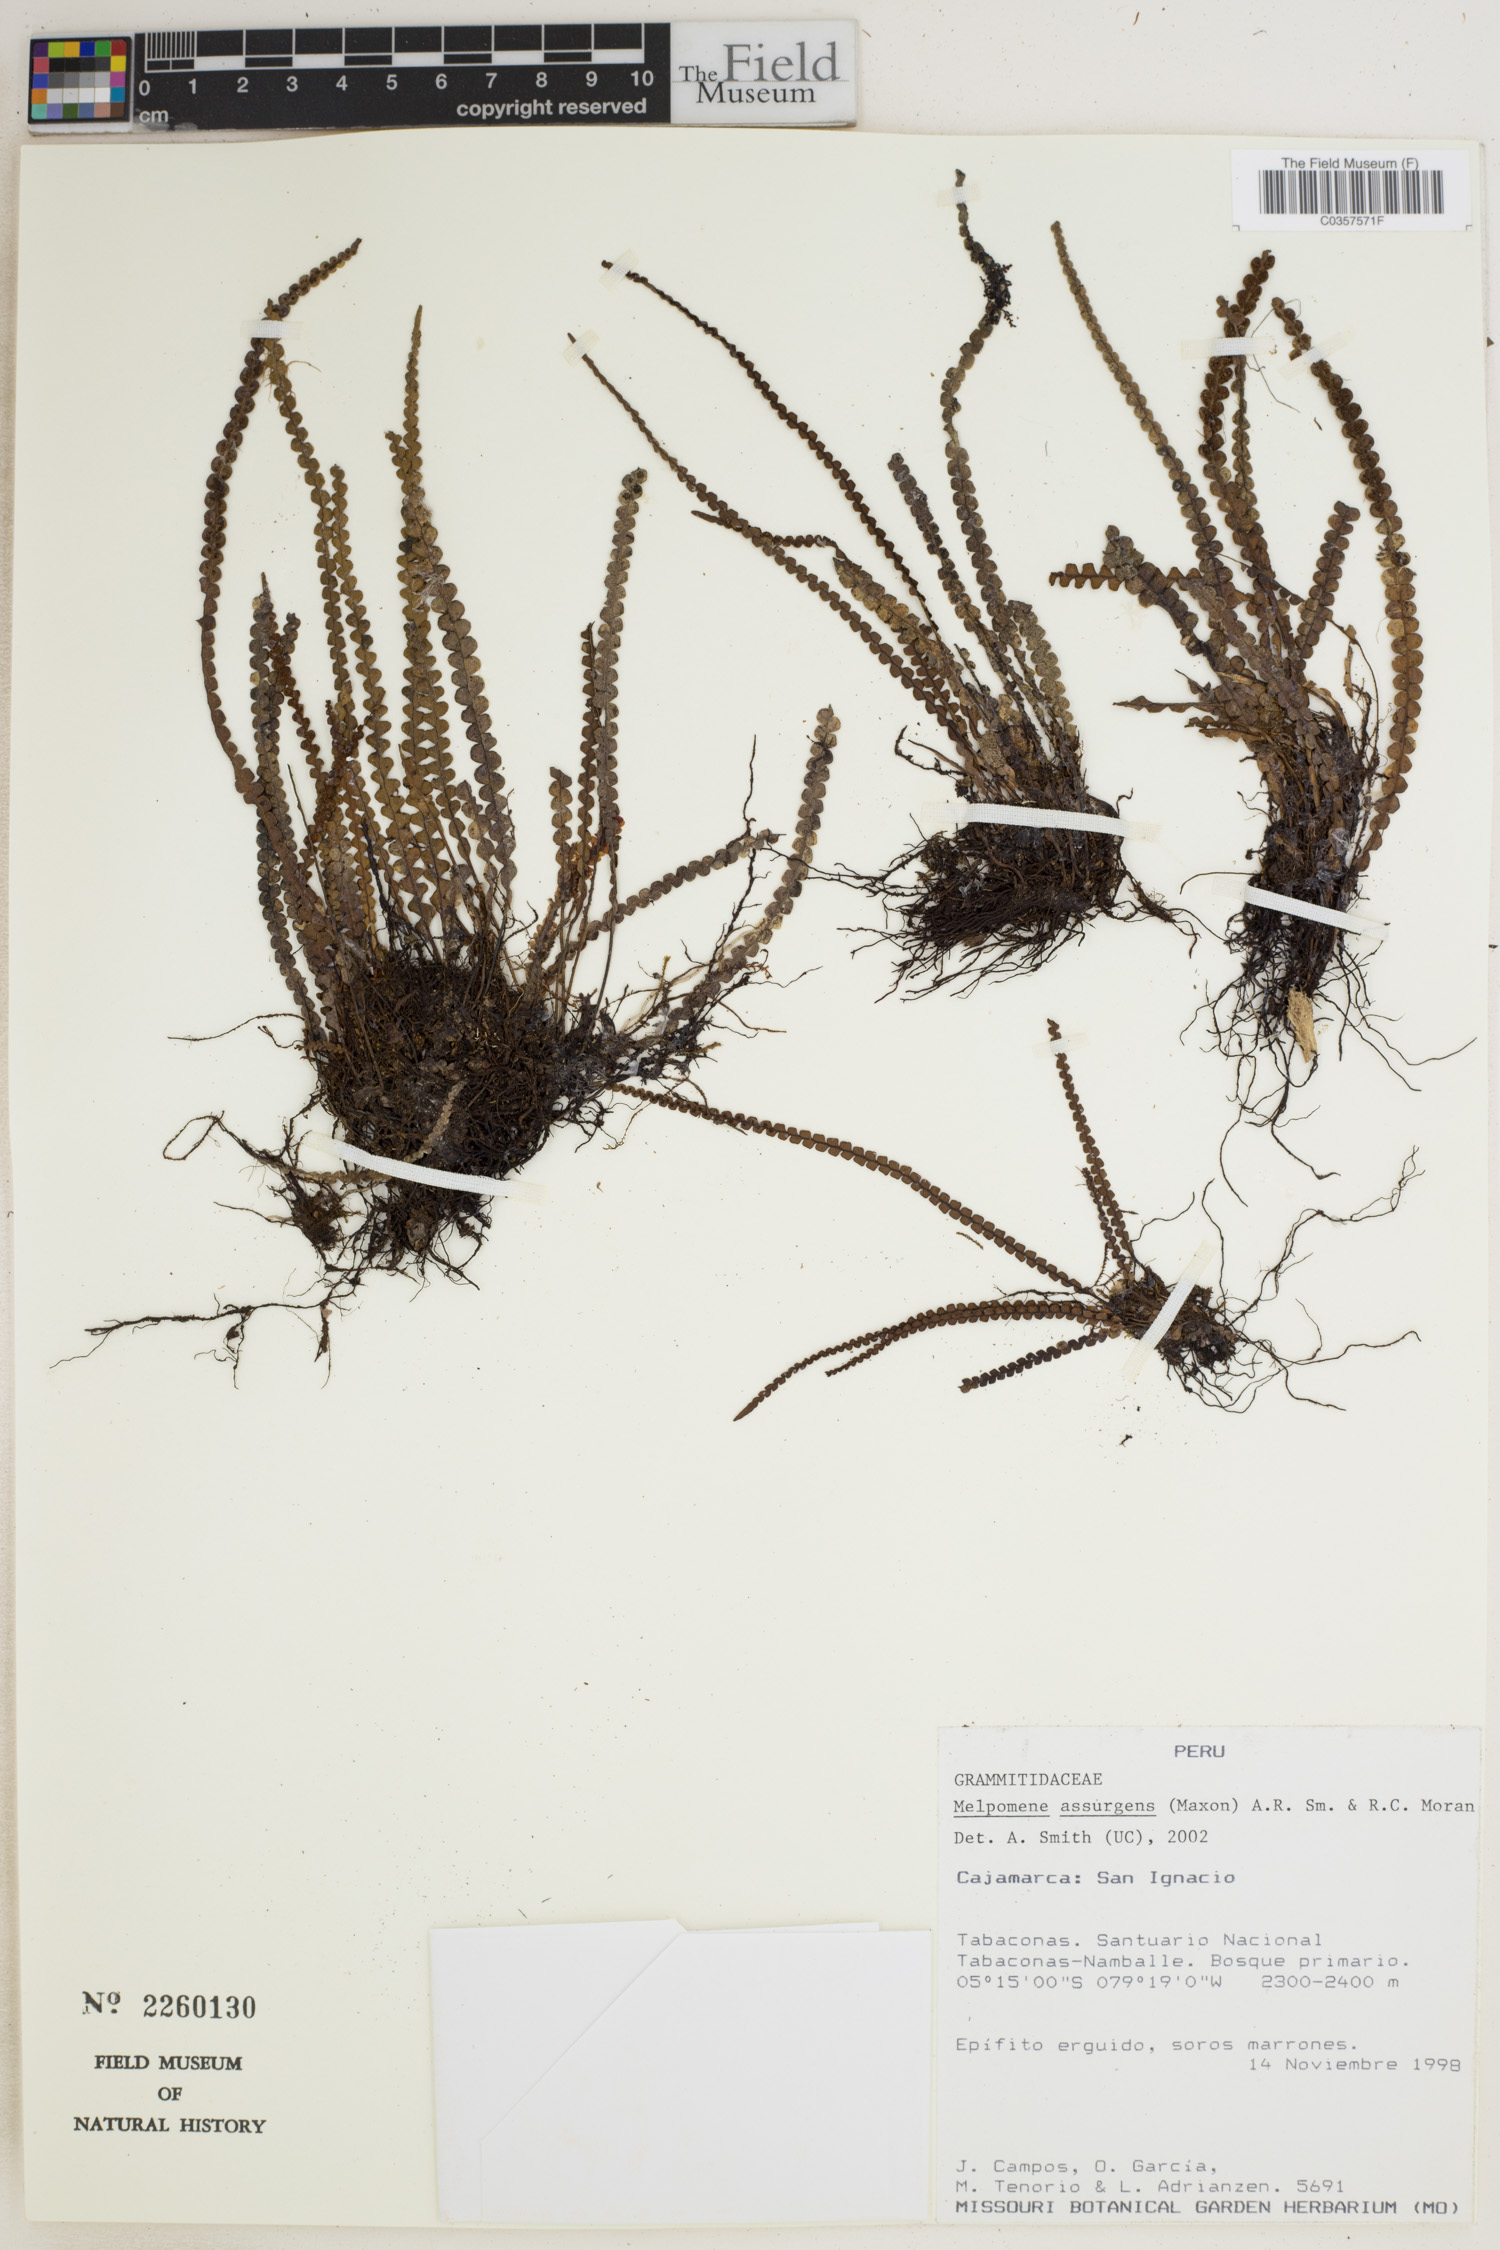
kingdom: Plantae
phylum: Tracheophyta
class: Polypodiopsida
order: Polypodiales
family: Polypodiaceae
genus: Melpomene
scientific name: Melpomene wolfii
